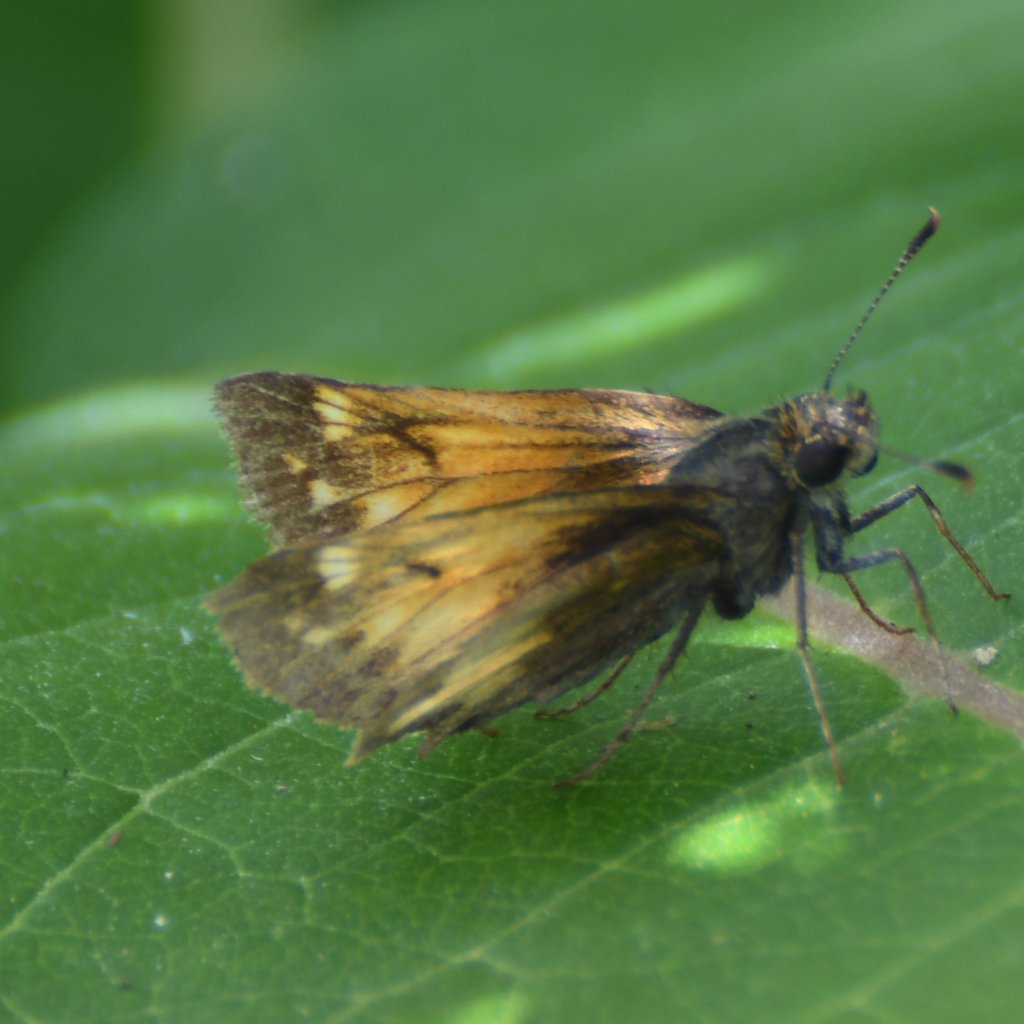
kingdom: Animalia
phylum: Arthropoda
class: Insecta
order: Lepidoptera
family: Hesperiidae
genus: Lon
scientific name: Lon hobomok
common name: Hobomok Skipper
